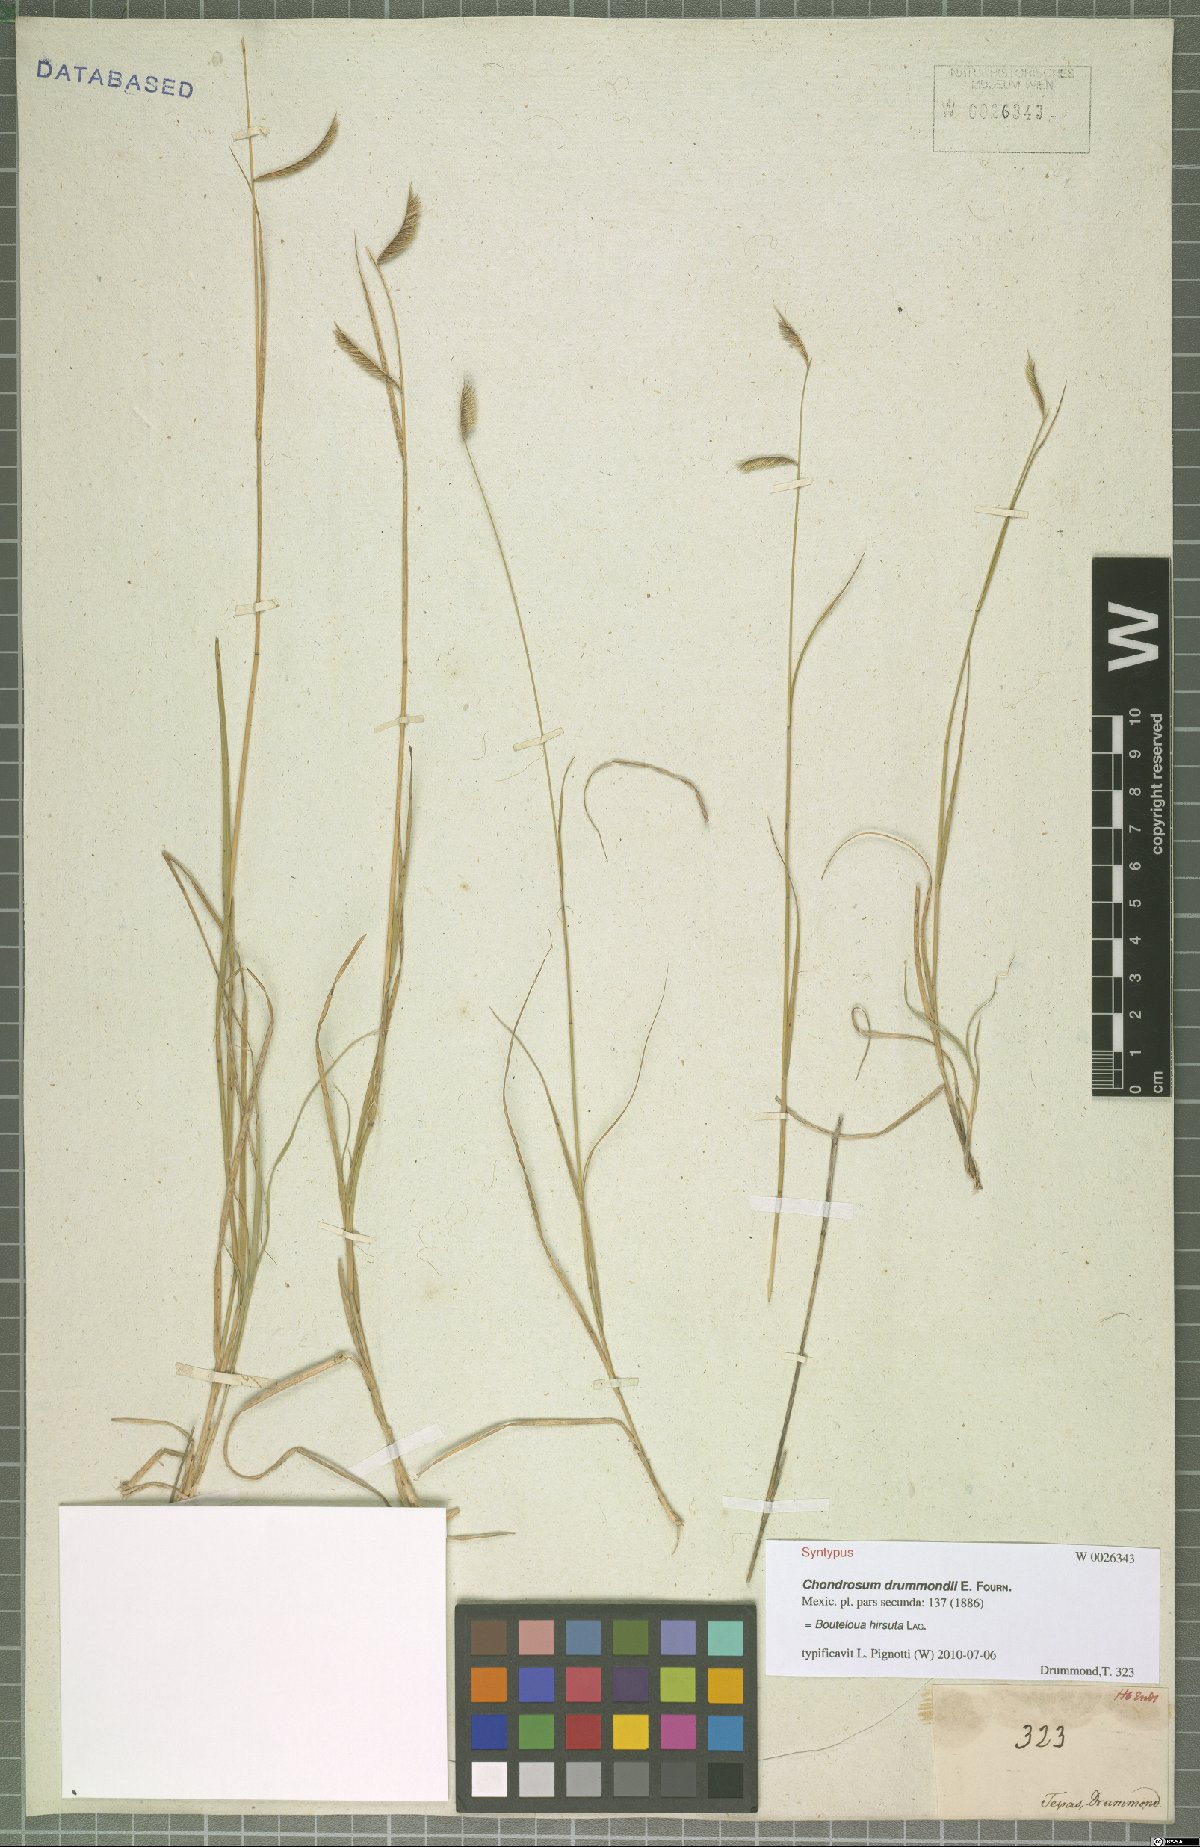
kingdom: Plantae
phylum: Tracheophyta
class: Liliopsida
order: Poales
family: Poaceae
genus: Bouteloua
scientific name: Bouteloua hirsuta
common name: Hairy grama
